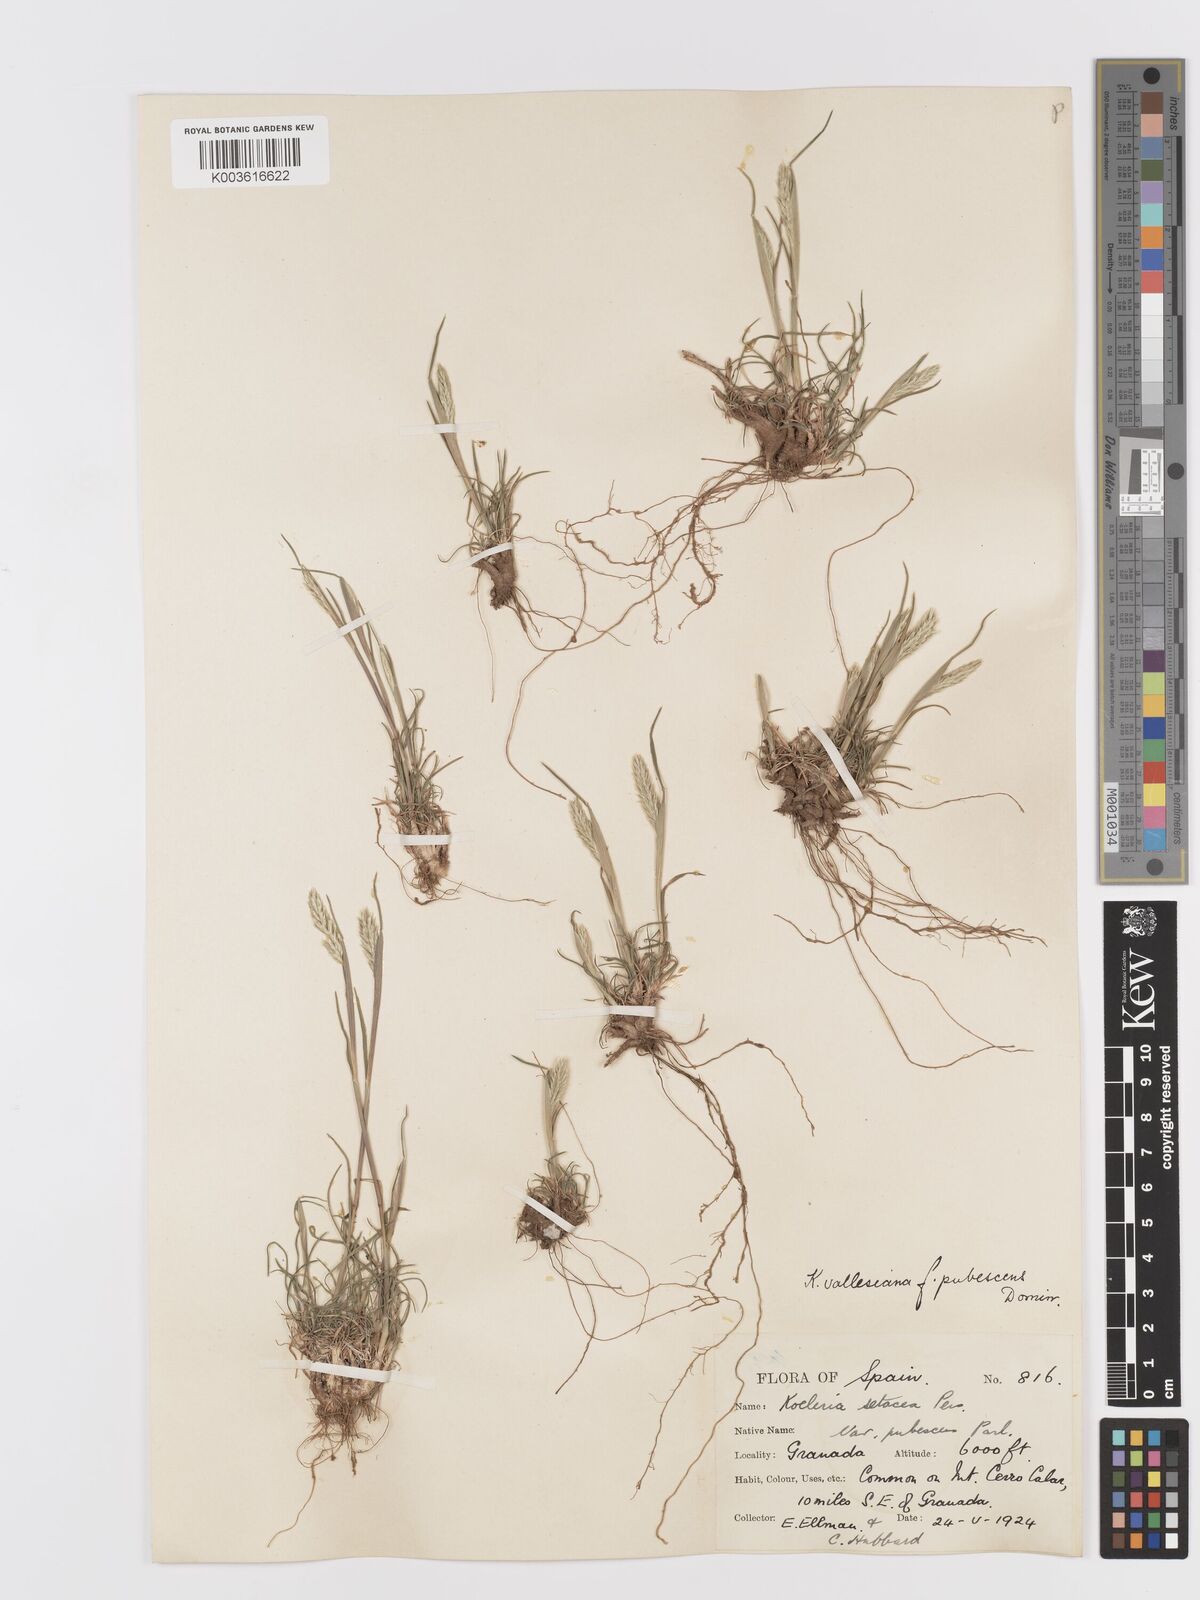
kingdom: Plantae
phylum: Tracheophyta
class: Liliopsida
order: Poales
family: Poaceae
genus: Koeleria
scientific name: Koeleria vallesiana
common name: Somerset hair-grass
